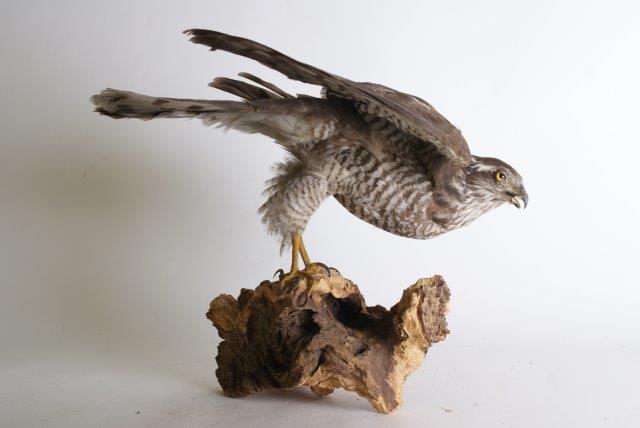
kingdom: Animalia
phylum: Chordata
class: Aves
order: Accipitriformes
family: Accipitridae
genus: Accipiter
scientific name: Accipiter nisus
